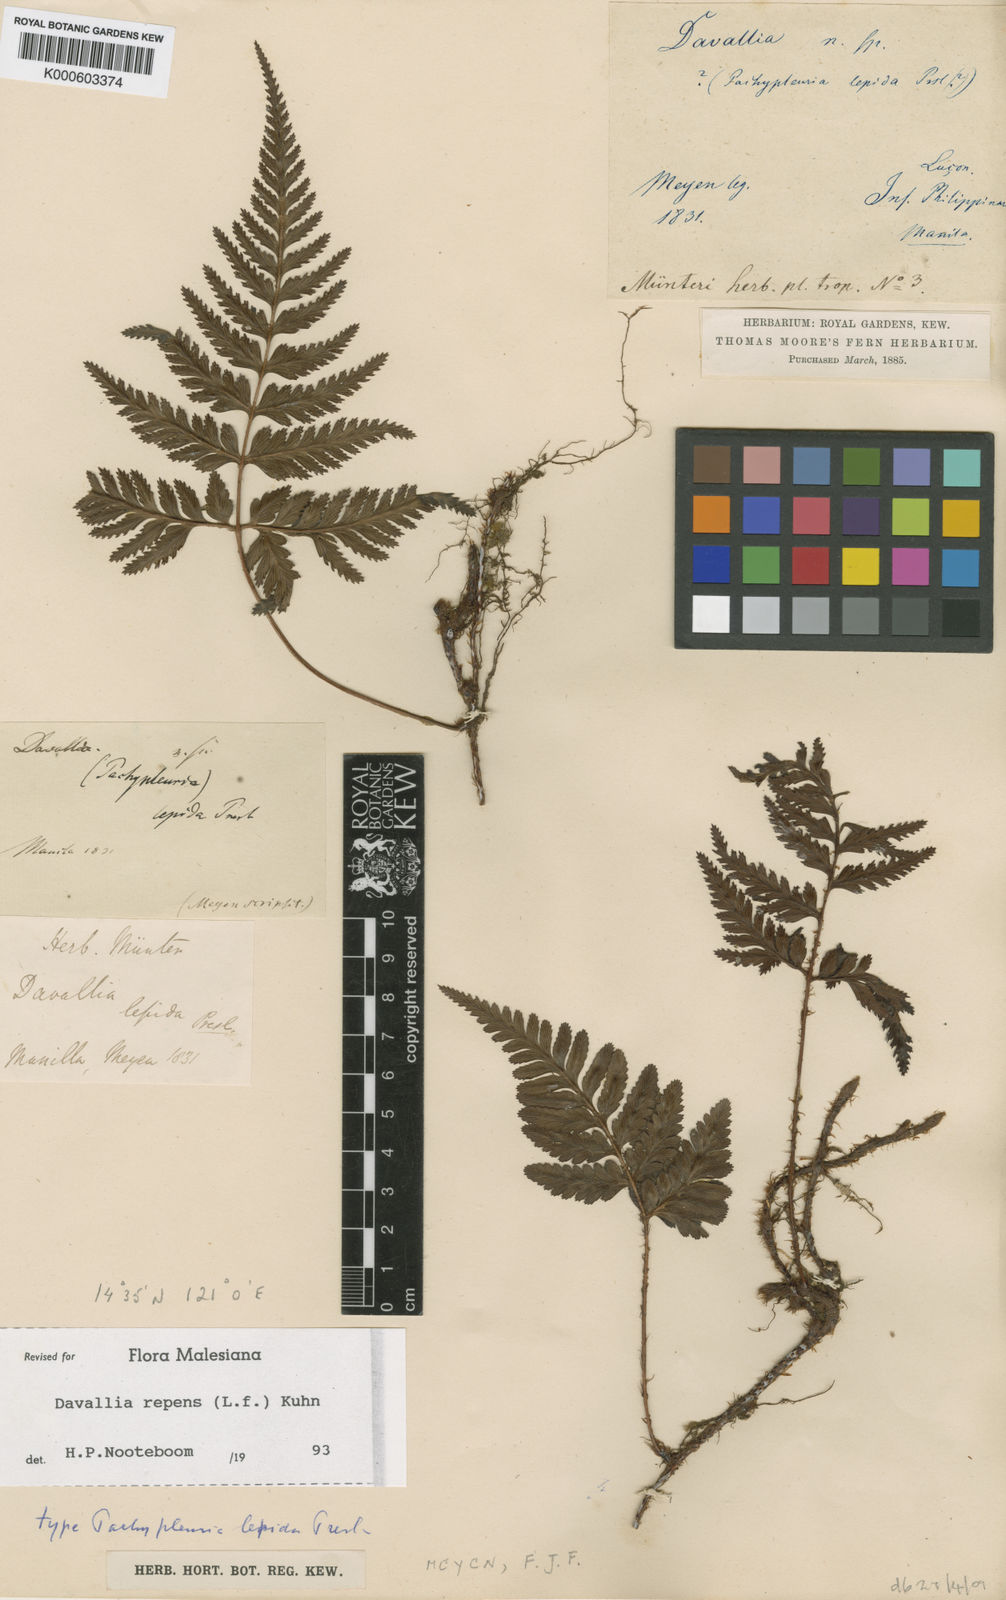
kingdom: Plantae
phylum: Tracheophyta
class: Polypodiopsida
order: Polypodiales
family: Davalliaceae
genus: Davallia
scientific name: Davallia graeffei
